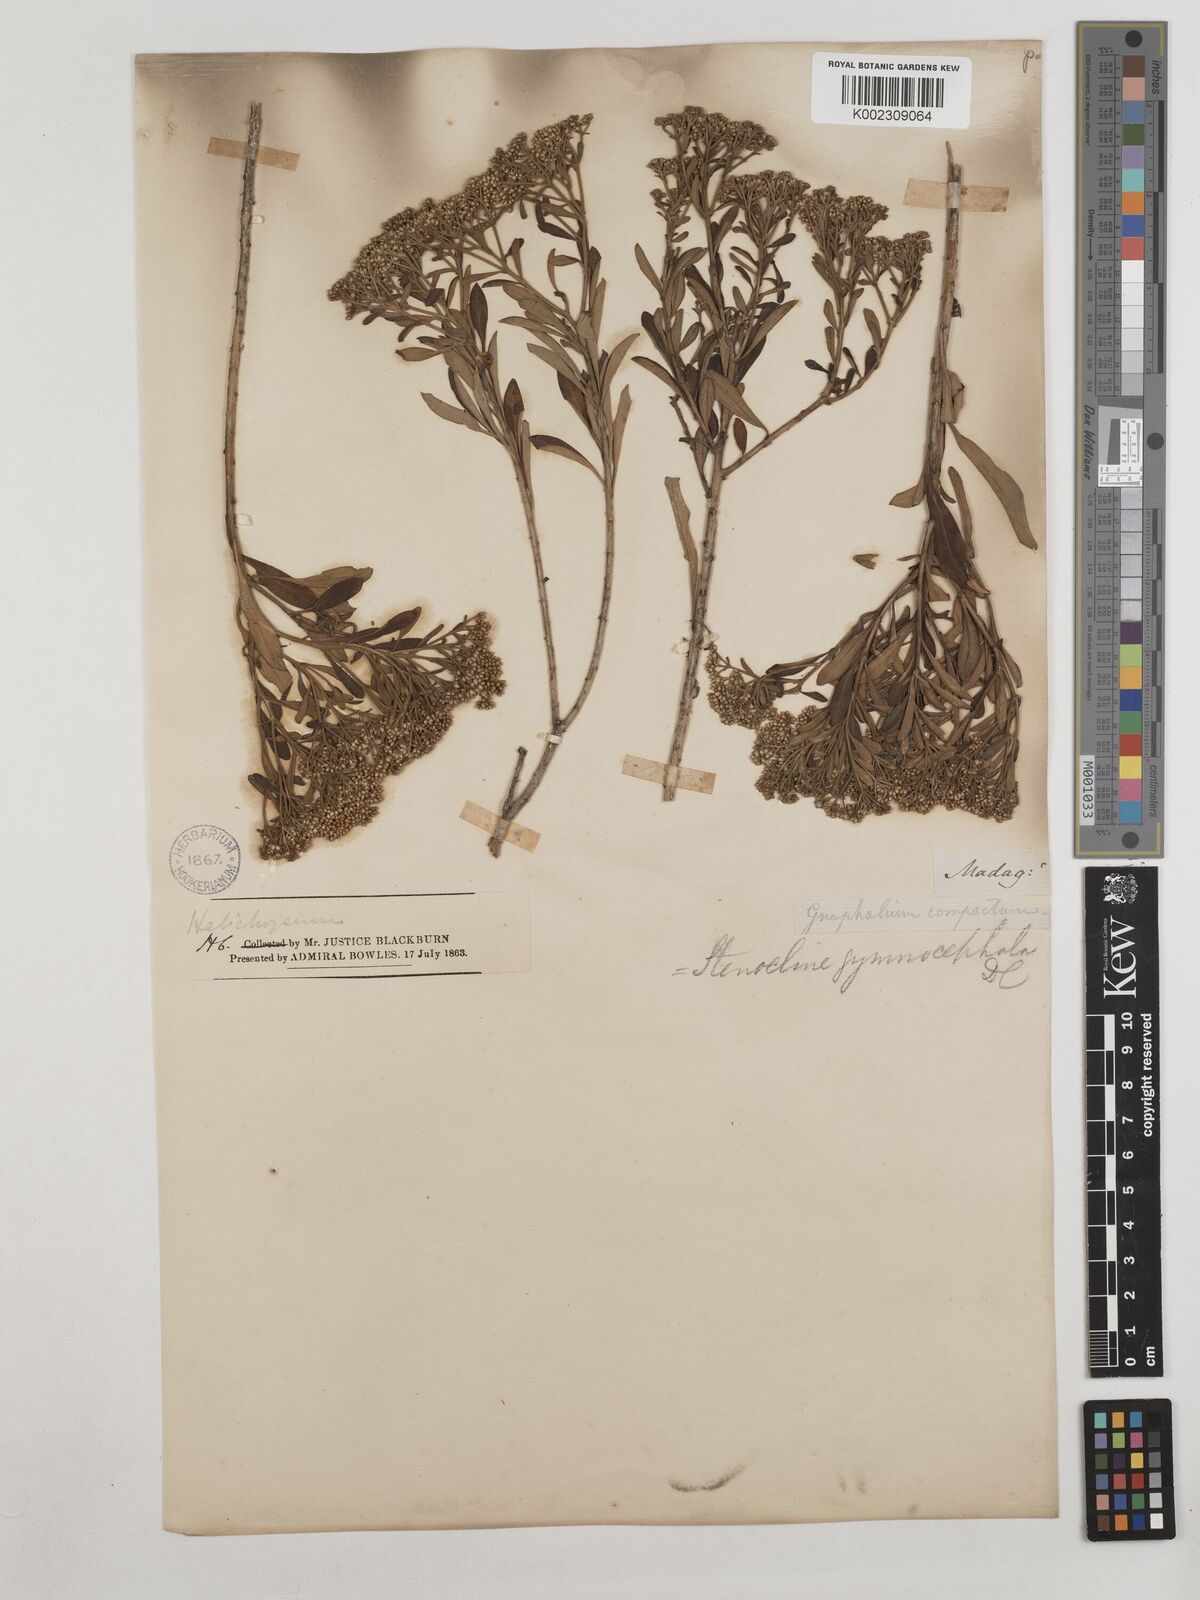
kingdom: Plantae
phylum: Tracheophyta
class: Magnoliopsida
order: Asterales
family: Asteraceae
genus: Helichrysum
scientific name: Helichrysum gymnocephalum
